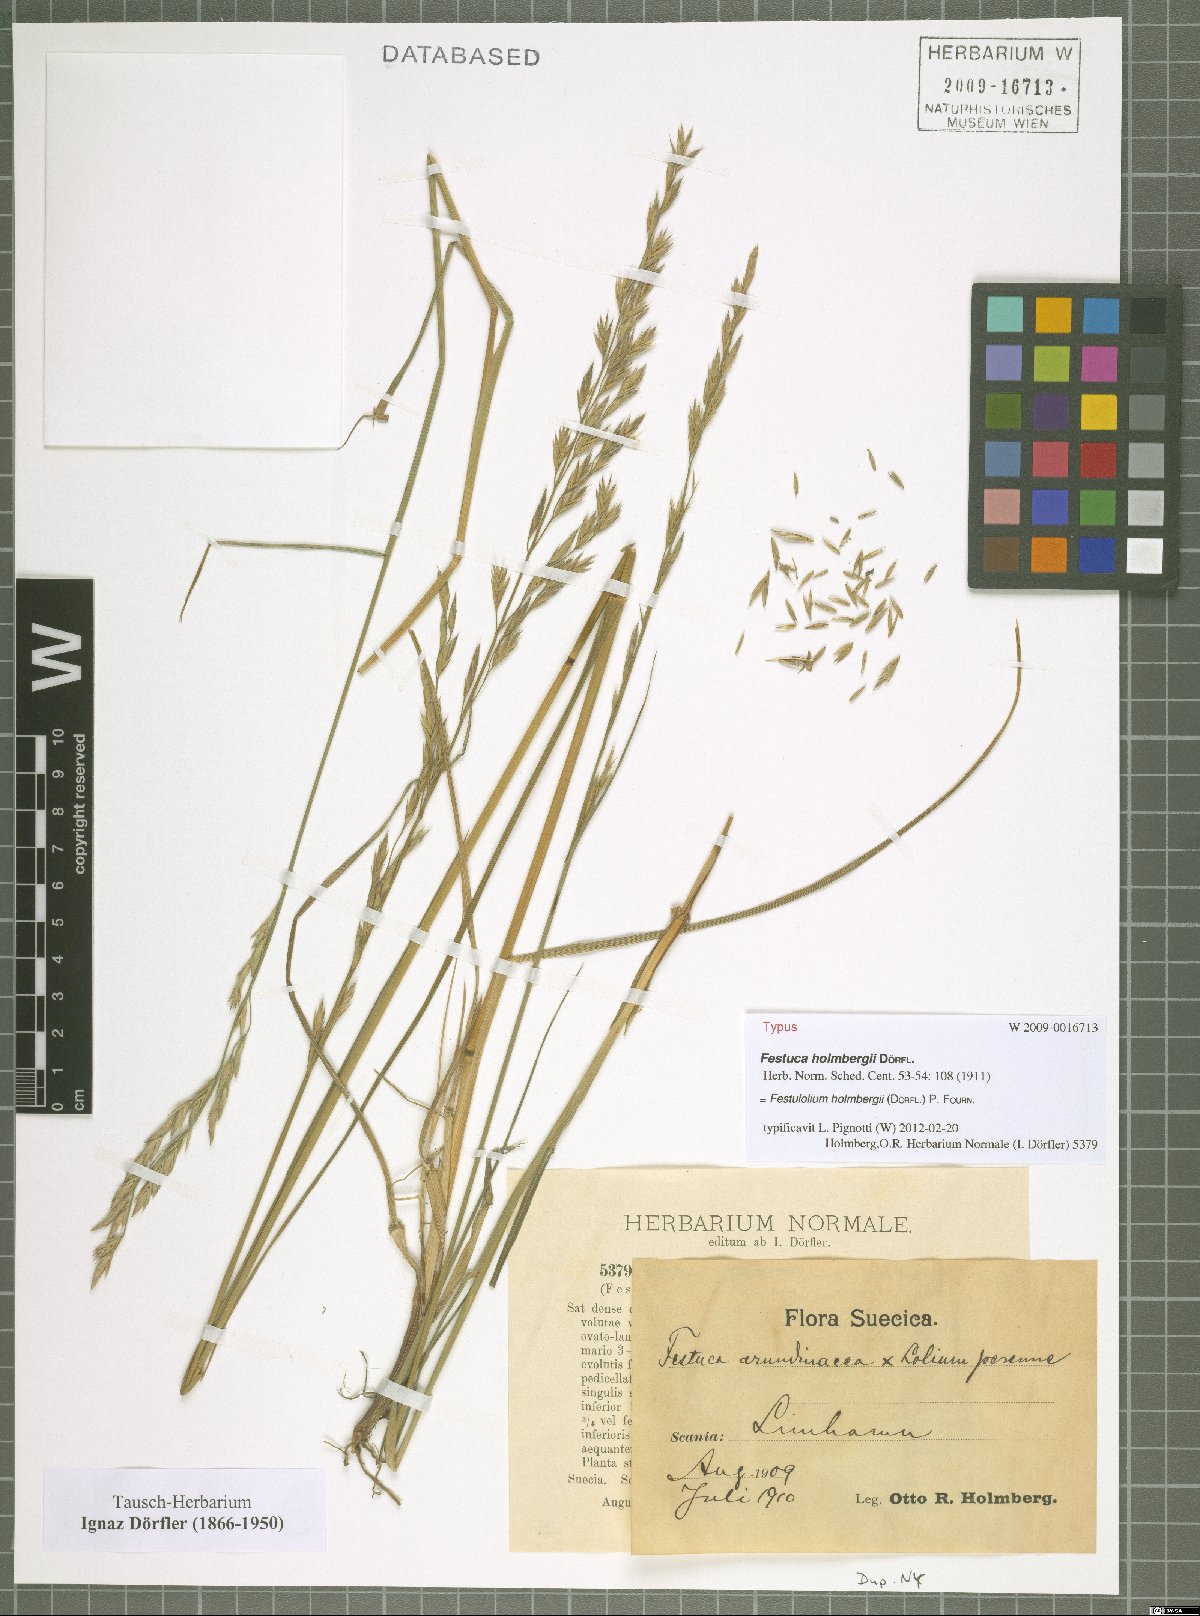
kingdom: Plantae
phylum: Tracheophyta
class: Liliopsida
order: Poales
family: Poaceae
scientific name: Poaceae
